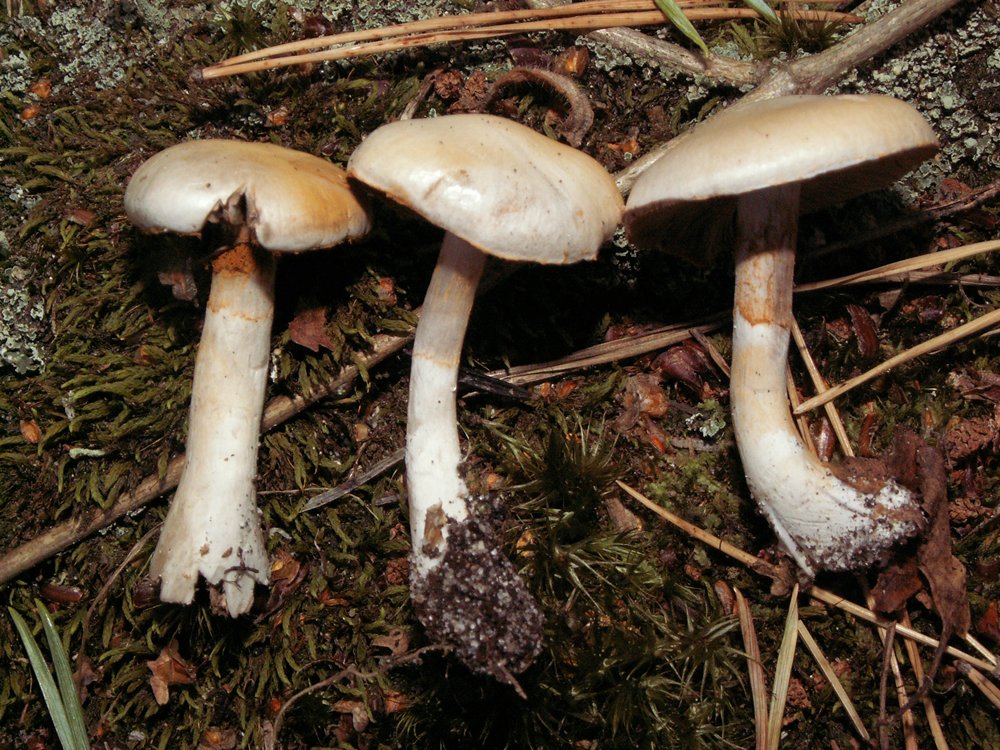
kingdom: Fungi
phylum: Basidiomycota
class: Agaricomycetes
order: Agaricales
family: Cortinariaceae
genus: Thaxterogaster
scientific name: Thaxterogaster leucoluteolus
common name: isabella slørhat
